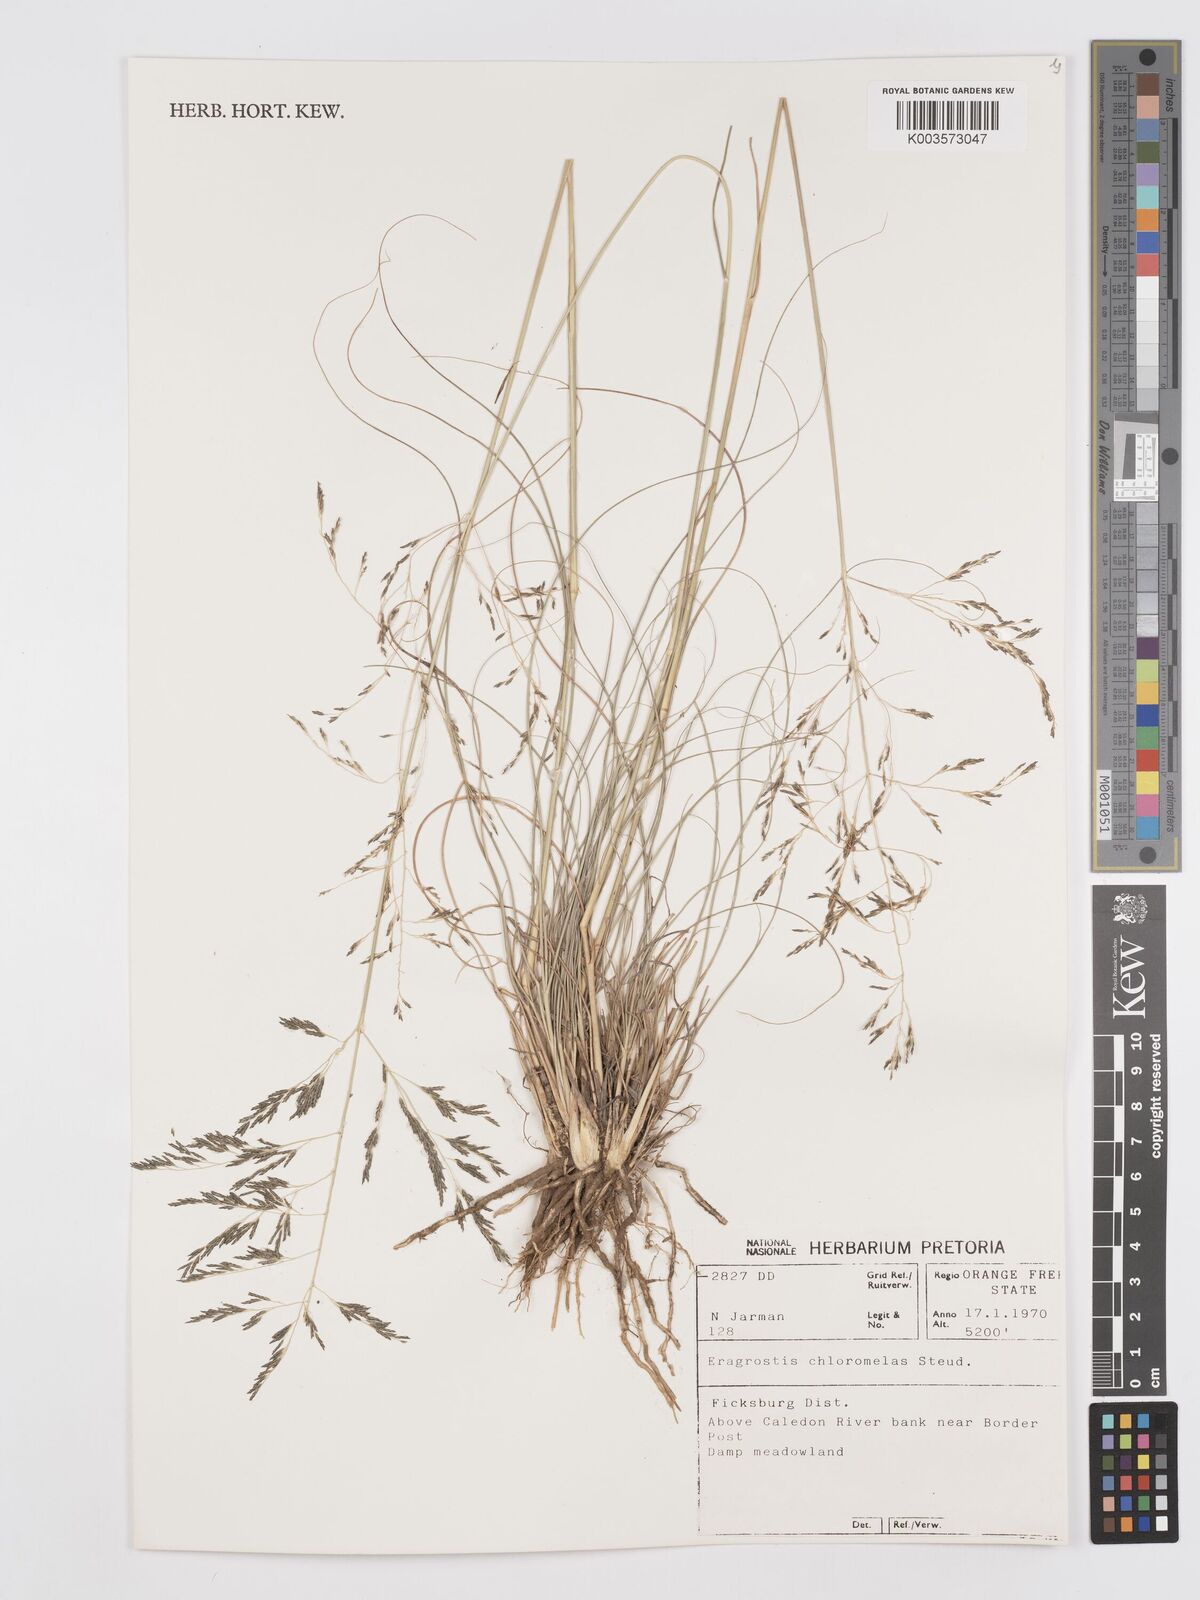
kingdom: Plantae
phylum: Tracheophyta
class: Liliopsida
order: Poales
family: Poaceae
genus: Eragrostis
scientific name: Eragrostis curvula
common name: African love-grass
